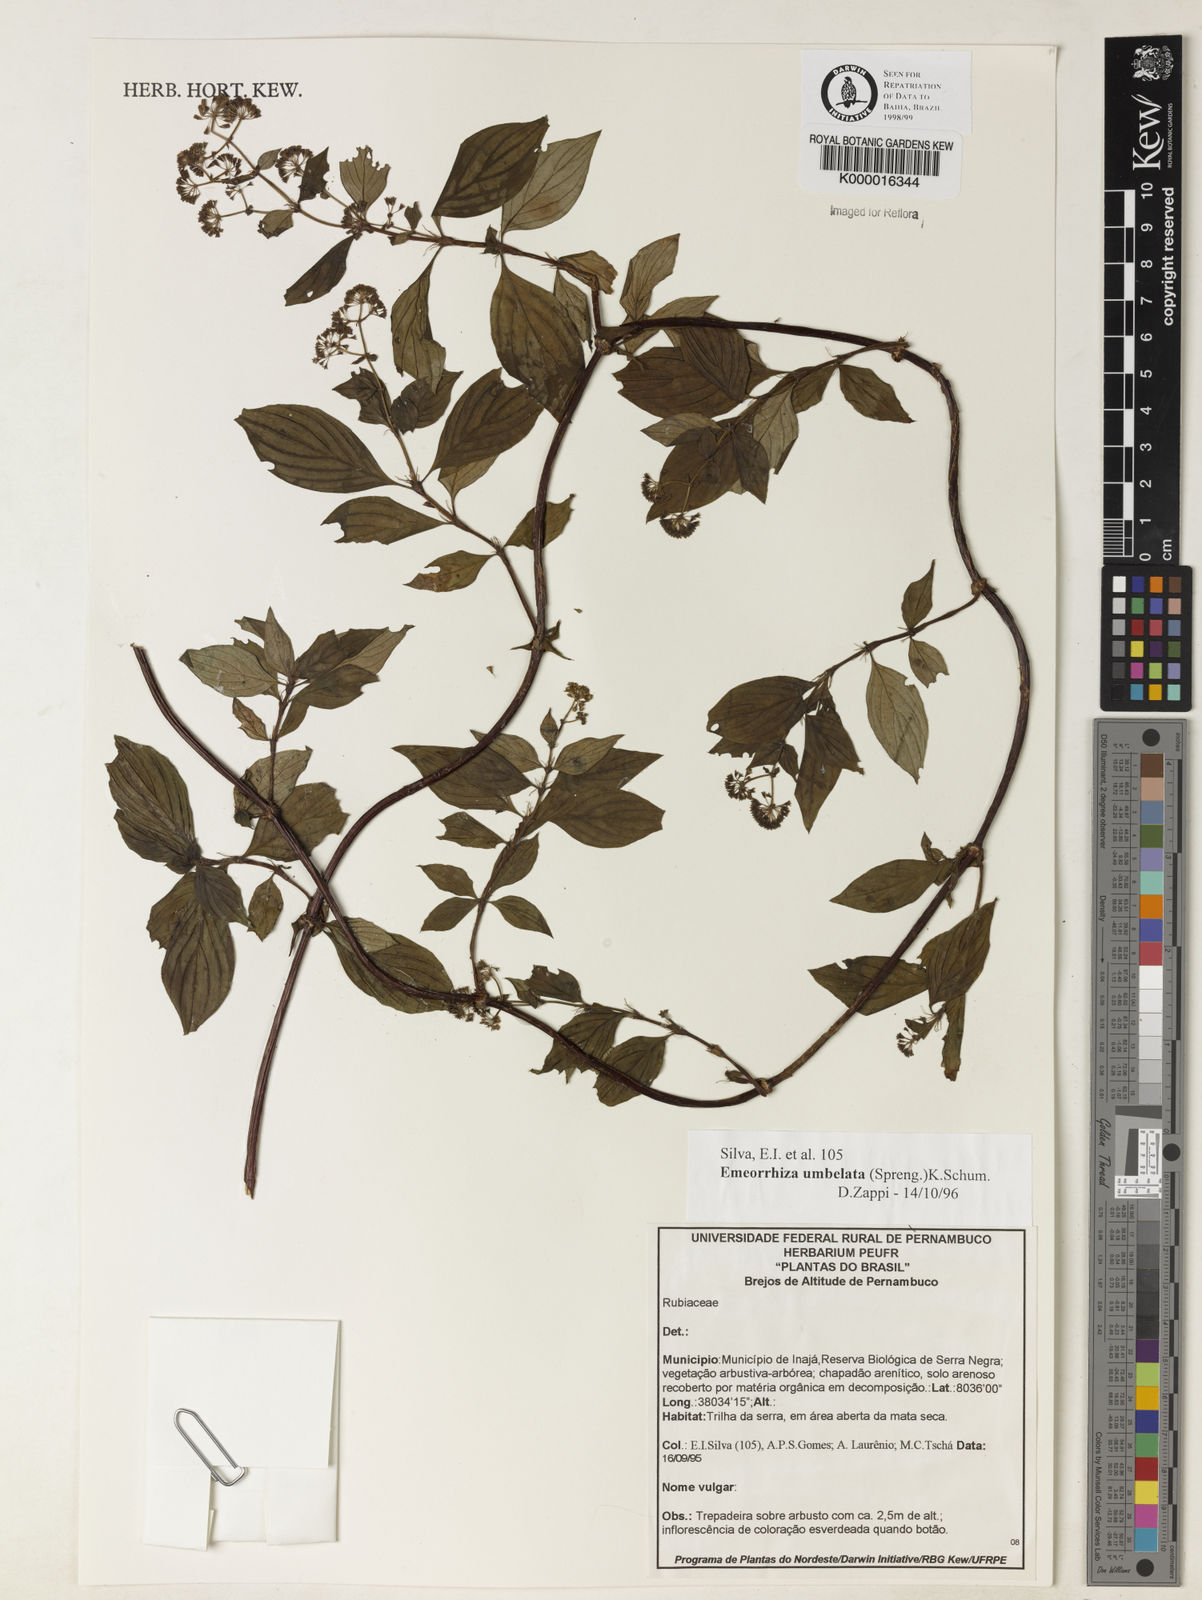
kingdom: Plantae
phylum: Tracheophyta
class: Magnoliopsida
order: Gentianales
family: Rubiaceae
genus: Emmeorhiza
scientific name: Emmeorhiza umbellata
